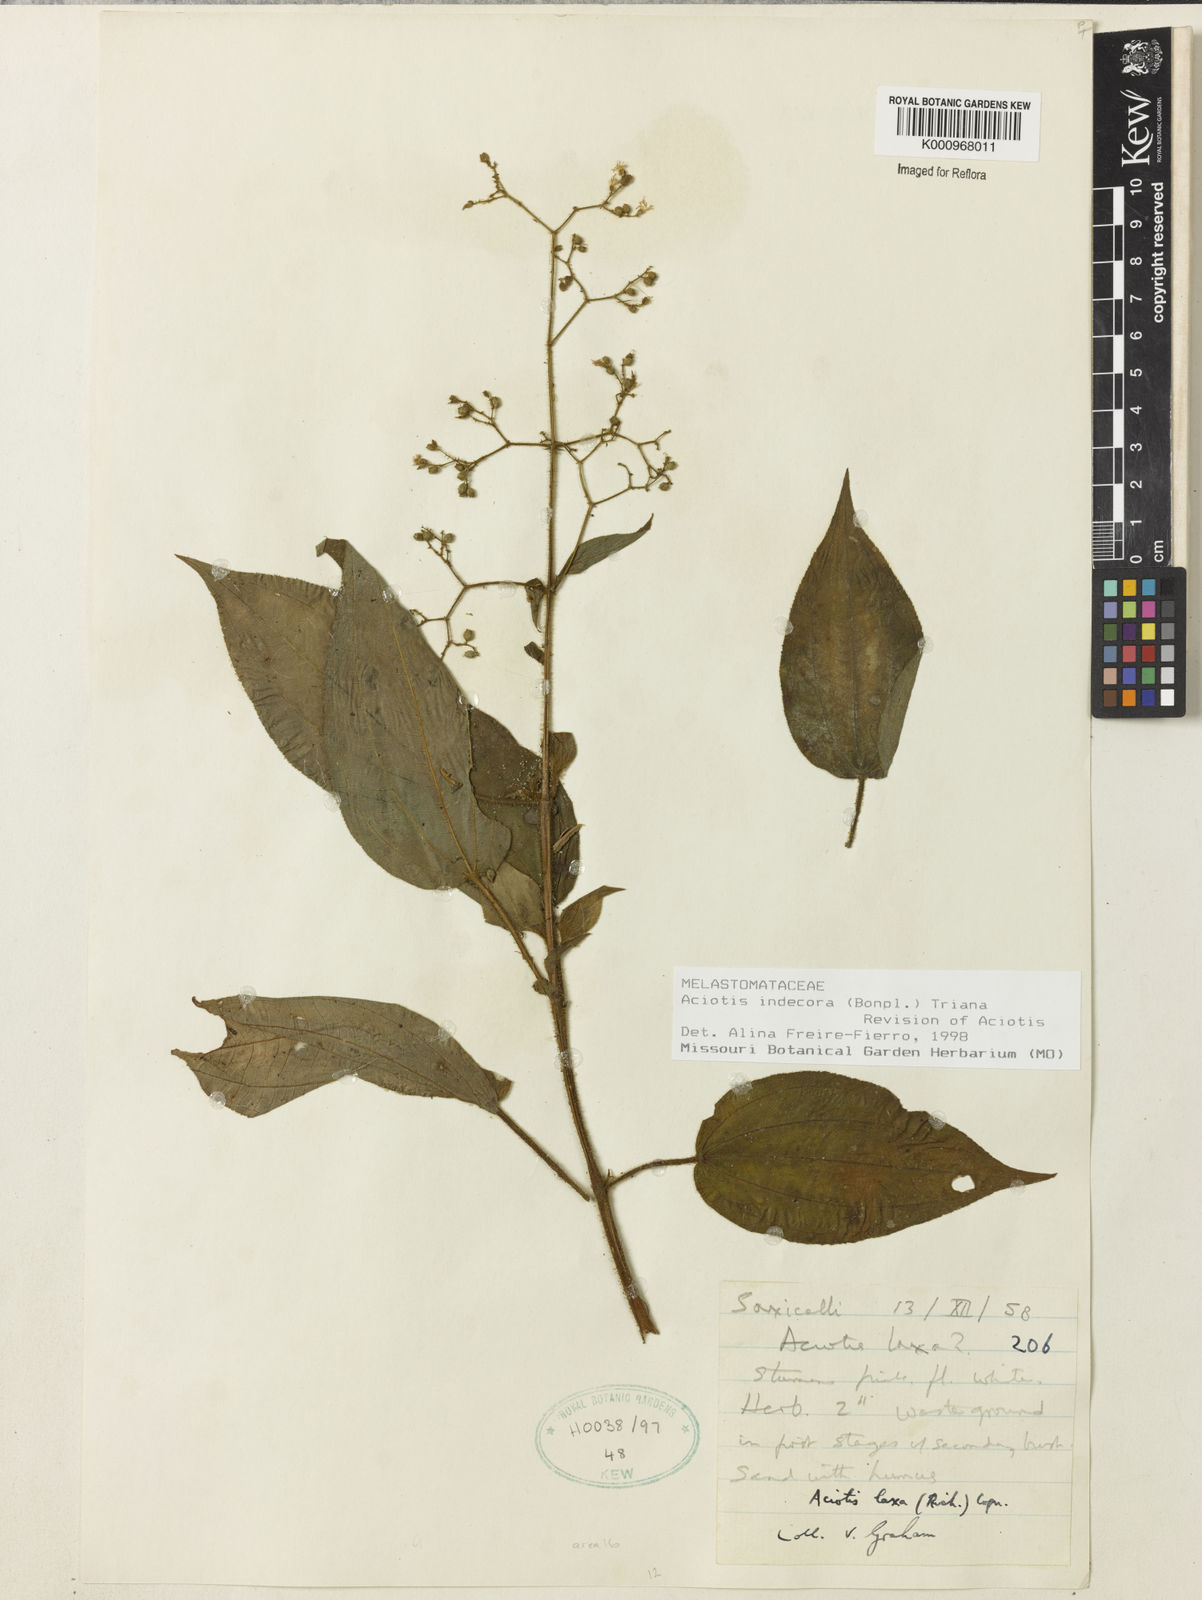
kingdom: Plantae
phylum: Tracheophyta
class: Magnoliopsida
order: Myrtales
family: Melastomataceae
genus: Aciotis
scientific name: Aciotis indecora
